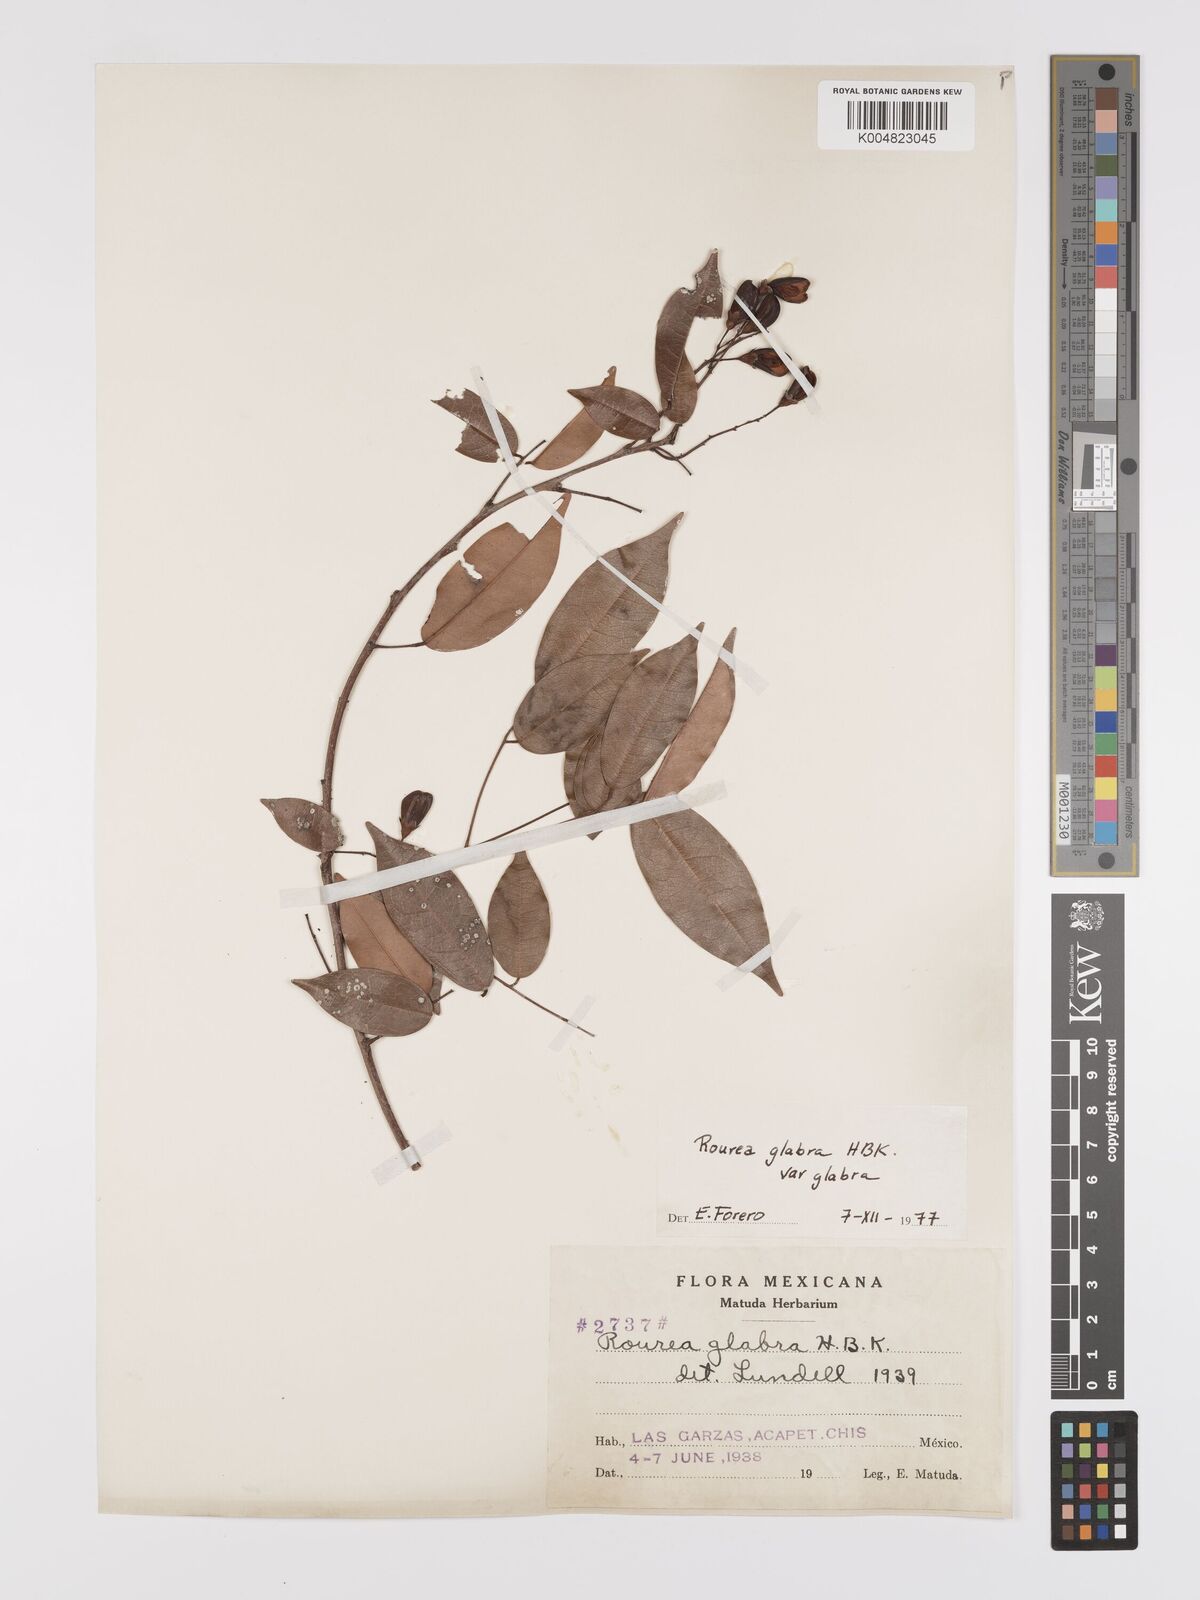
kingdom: Plantae
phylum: Tracheophyta
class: Magnoliopsida
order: Oxalidales
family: Connaraceae
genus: Rourea
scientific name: Rourea glabra
